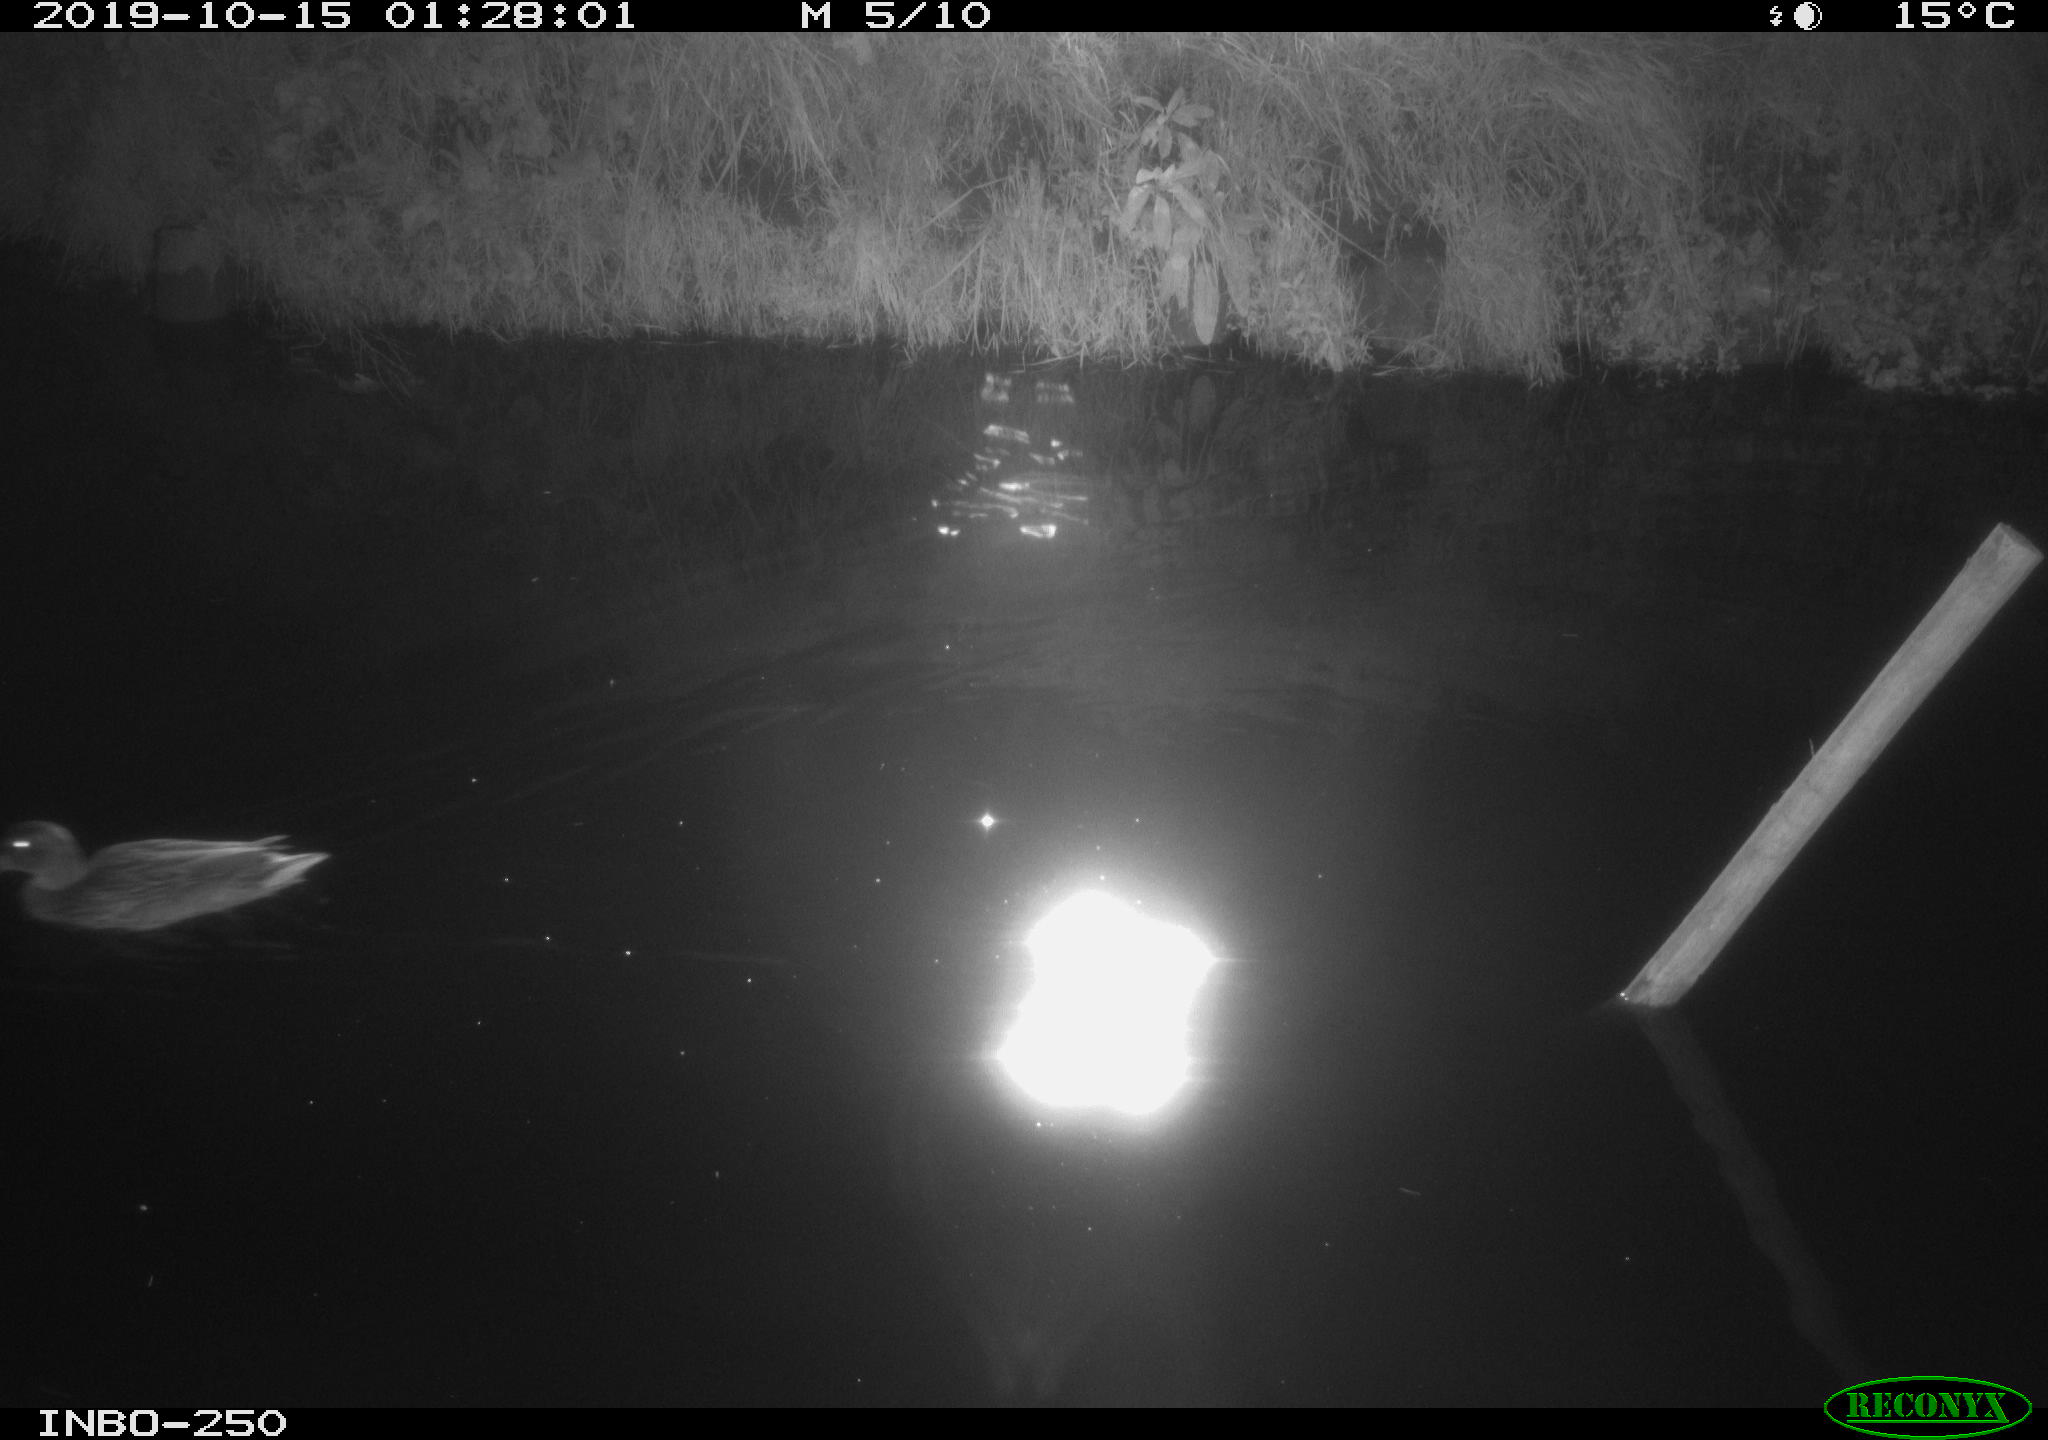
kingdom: Animalia
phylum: Chordata
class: Aves
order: Anseriformes
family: Anatidae
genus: Anas
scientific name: Anas platyrhynchos
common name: Mallard
